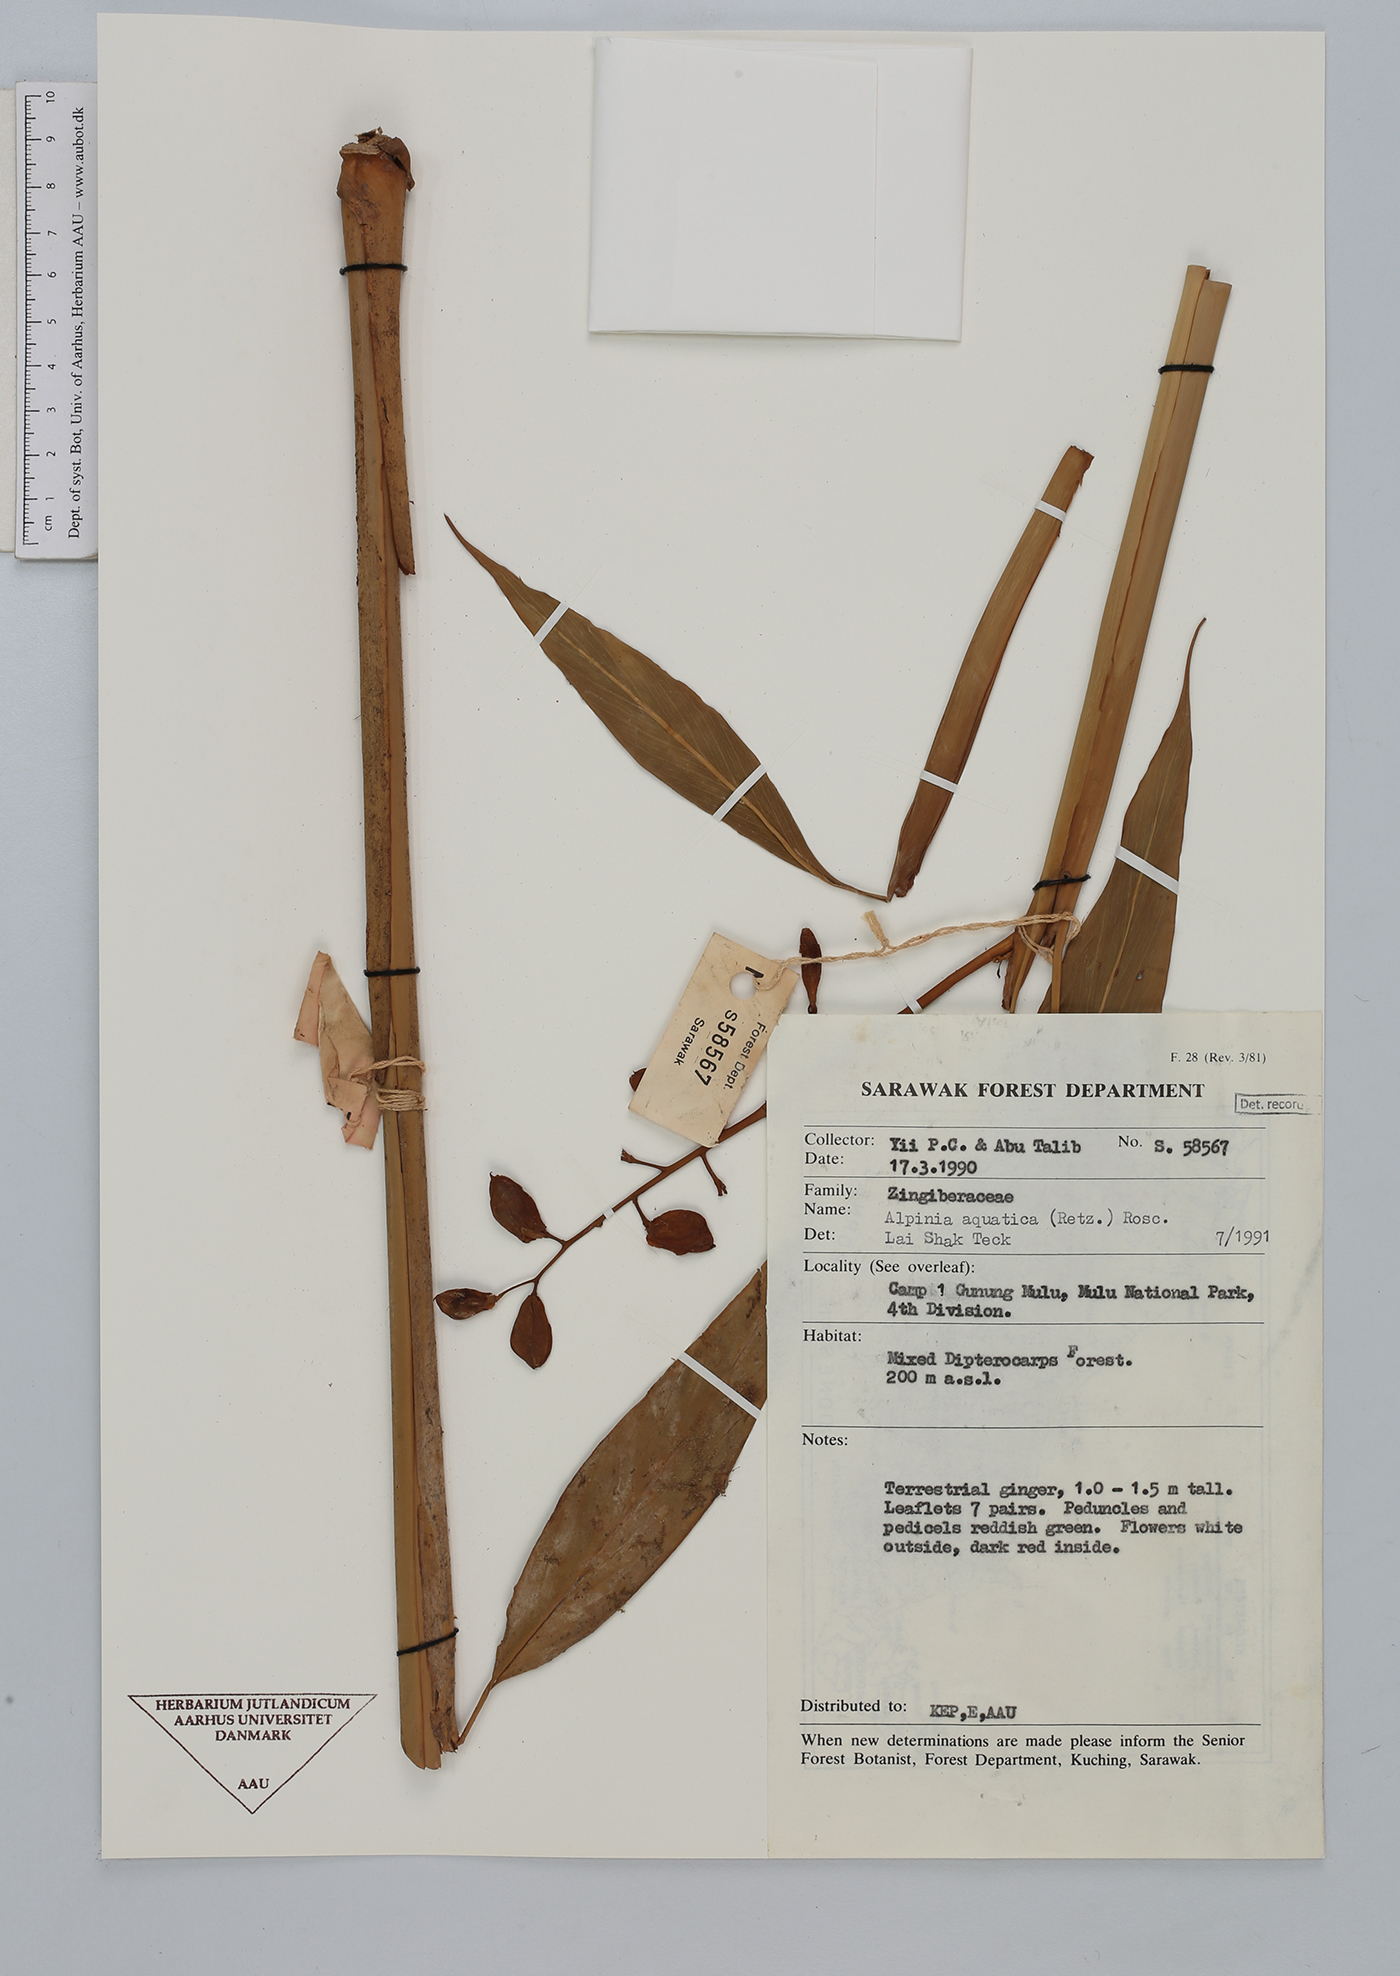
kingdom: Plantae
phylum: Tracheophyta
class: Liliopsida
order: Zingiberales
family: Zingiberaceae
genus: Alpinia
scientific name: Alpinia aquatica
